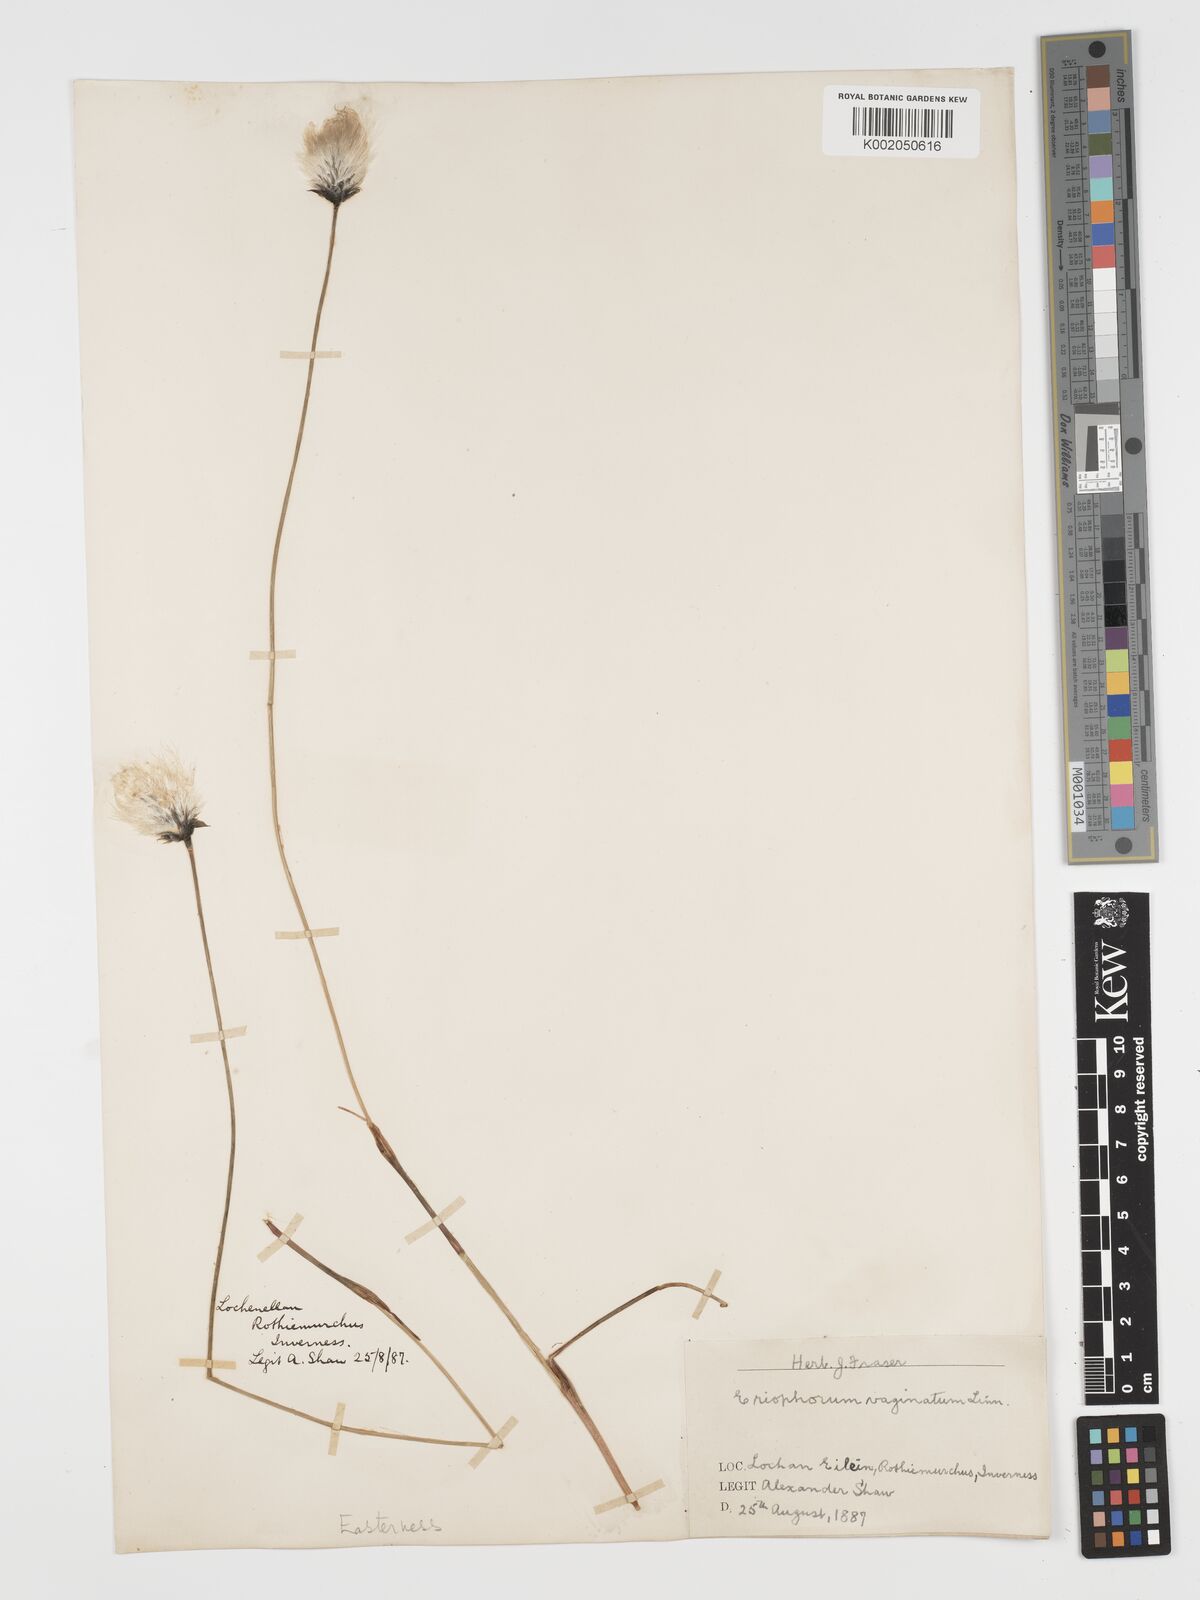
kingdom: Plantae
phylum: Tracheophyta
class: Liliopsida
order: Poales
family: Cyperaceae
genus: Eriophorum
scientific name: Eriophorum vaginatum
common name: Hare's-tail cottongrass
